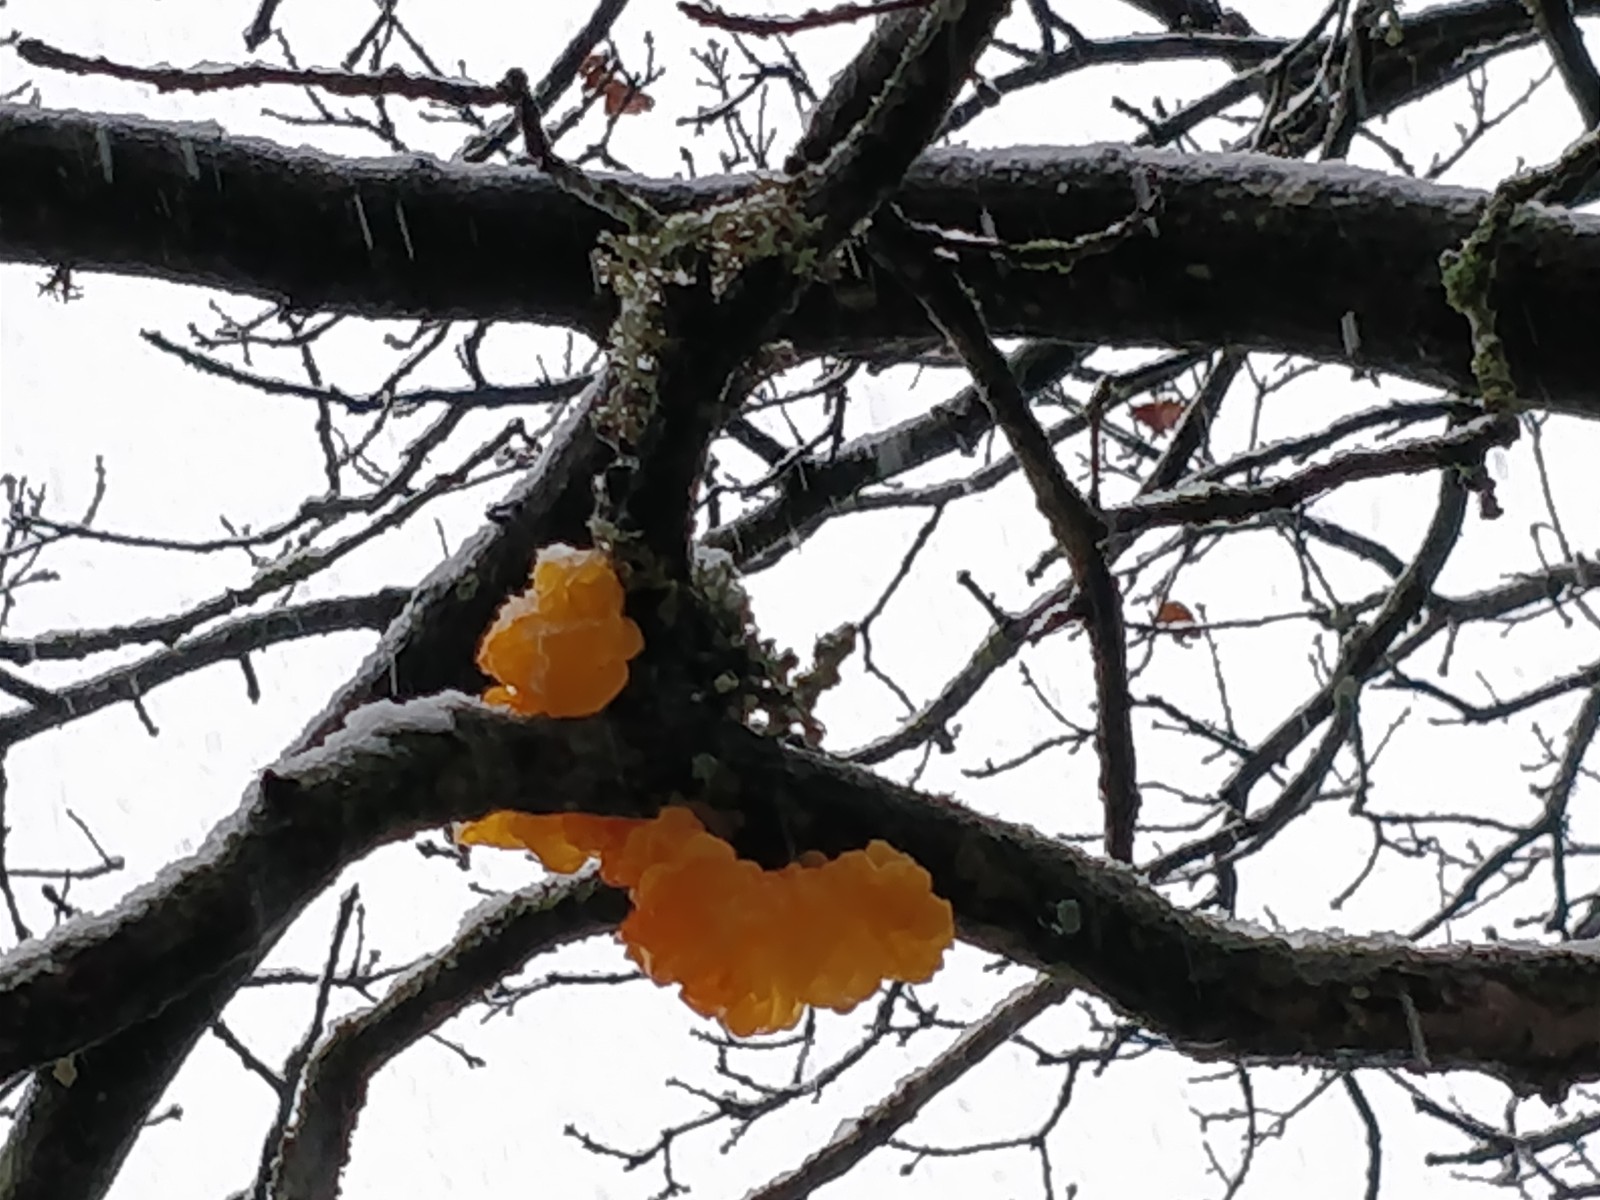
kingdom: Fungi
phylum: Basidiomycota
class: Tremellomycetes
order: Tremellales
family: Tremellaceae
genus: Tremella
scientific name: Tremella mesenterica
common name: gul bævresvamp
